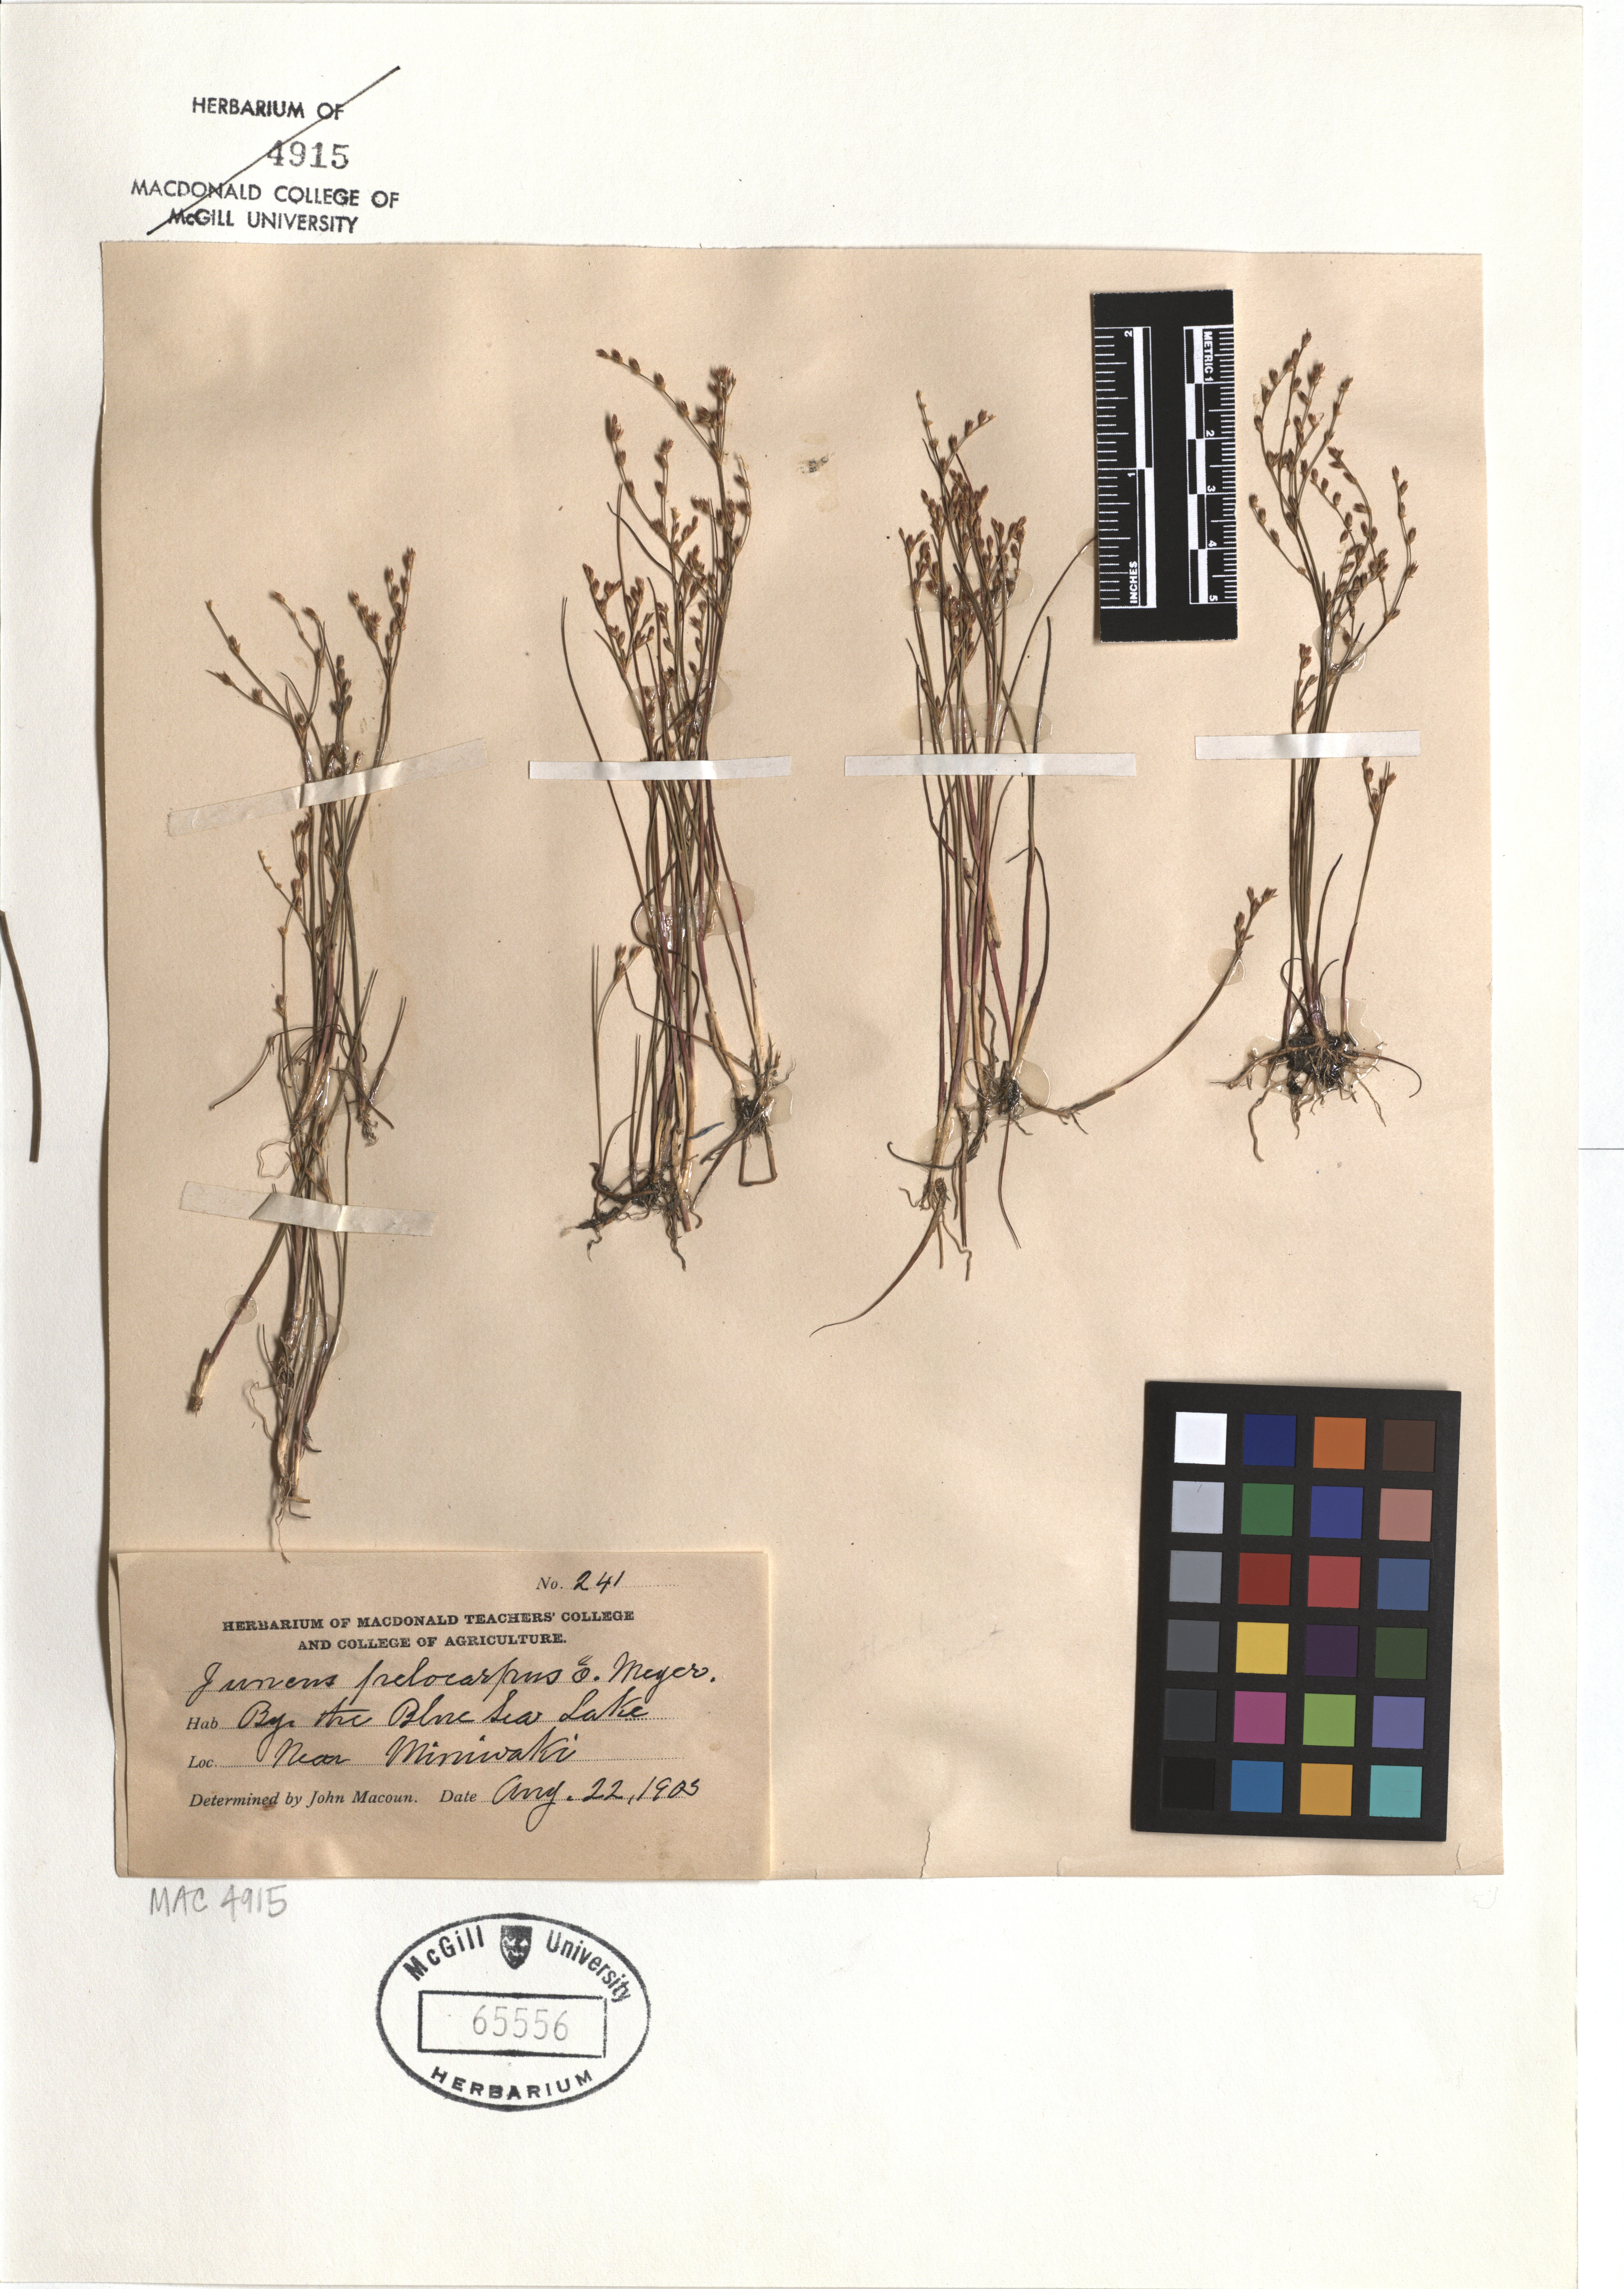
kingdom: Plantae
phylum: Tracheophyta
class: Liliopsida
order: Poales
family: Juncaceae
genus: Juncus
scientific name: Juncus pelocarpus
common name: Brown-fruited rush
